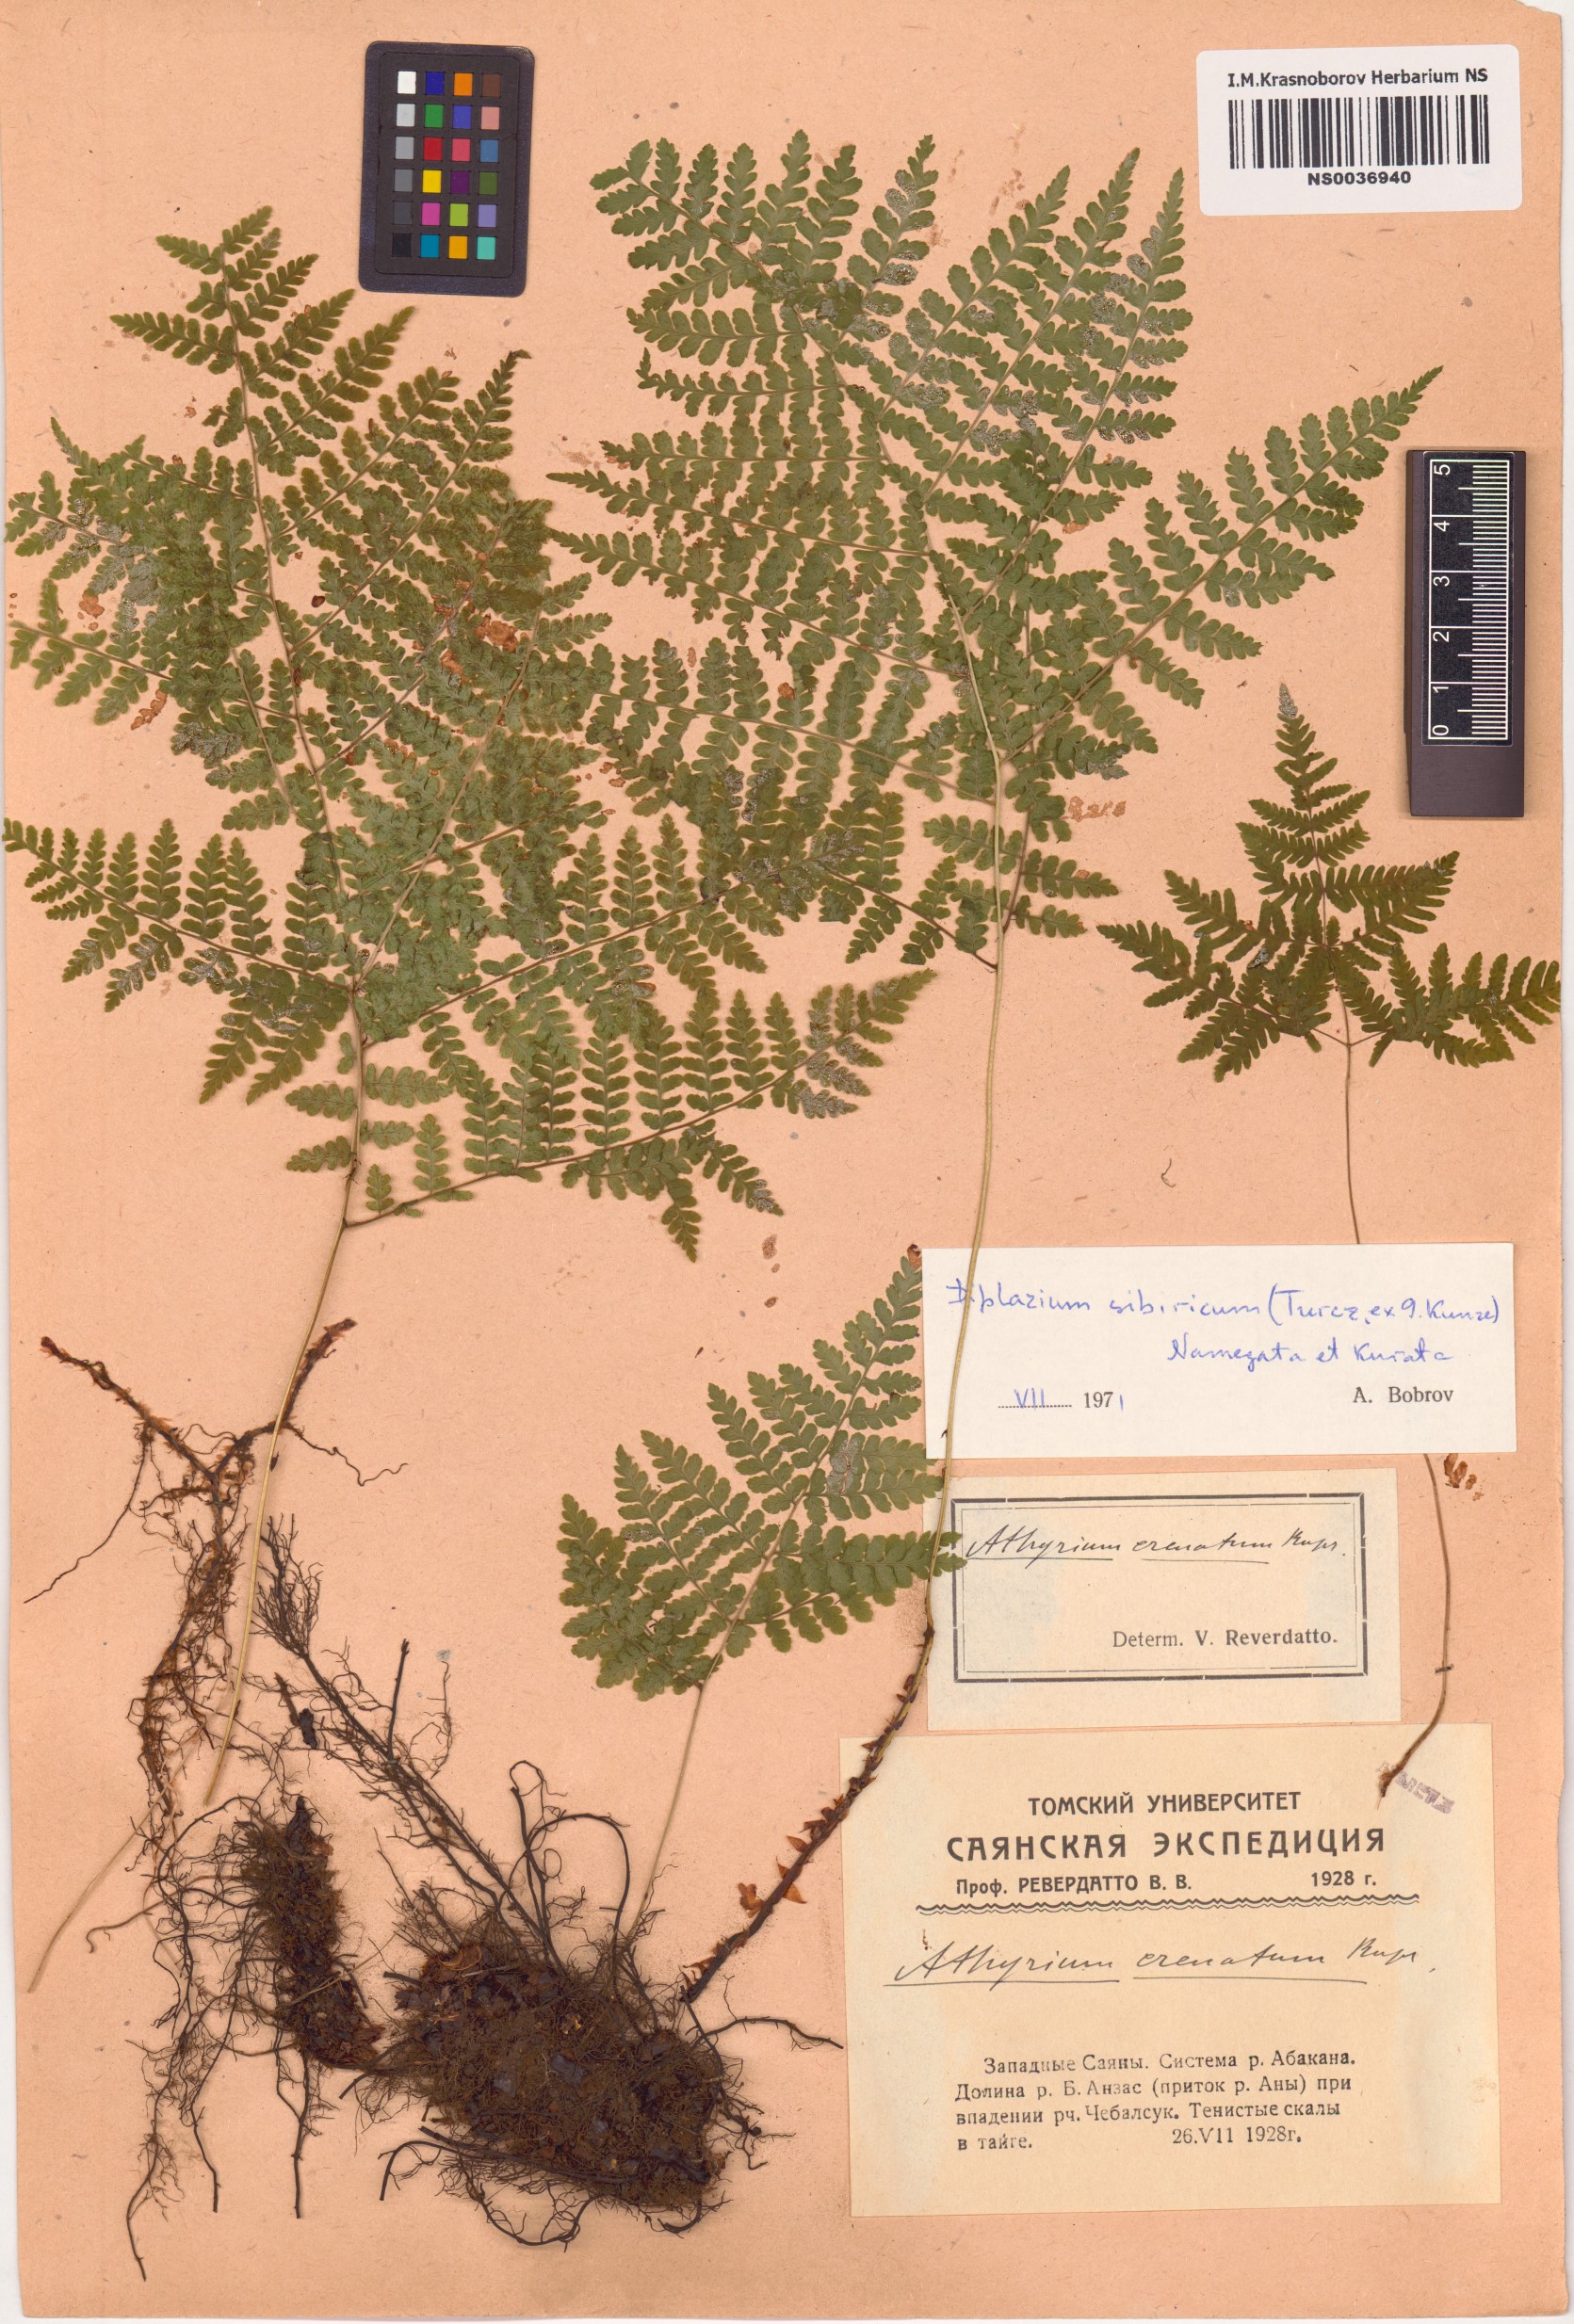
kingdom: Plantae
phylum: Tracheophyta
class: Polypodiopsida
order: Polypodiales
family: Athyriaceae
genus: Diplazium
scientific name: Diplazium sibiricum
